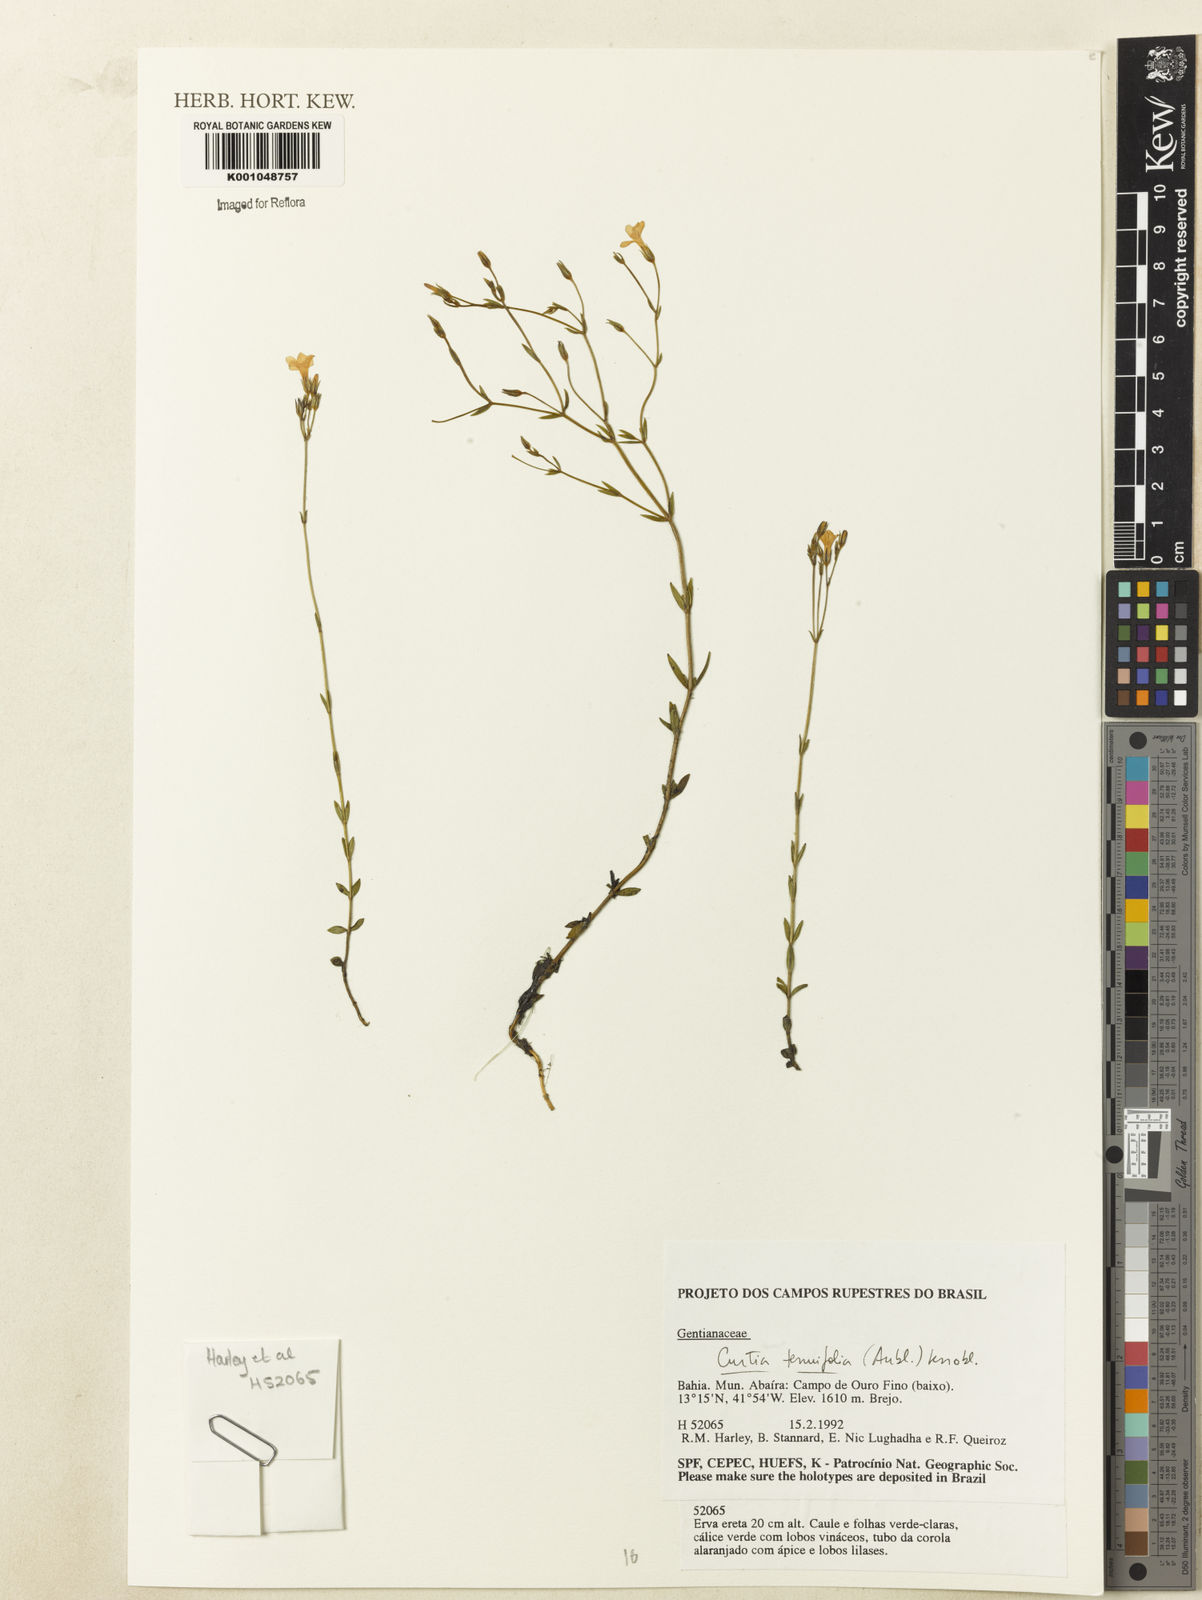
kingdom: Plantae
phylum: Tracheophyta
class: Magnoliopsida
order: Gentianales
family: Gentianaceae
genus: Curtia
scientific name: Curtia tenuifolia
